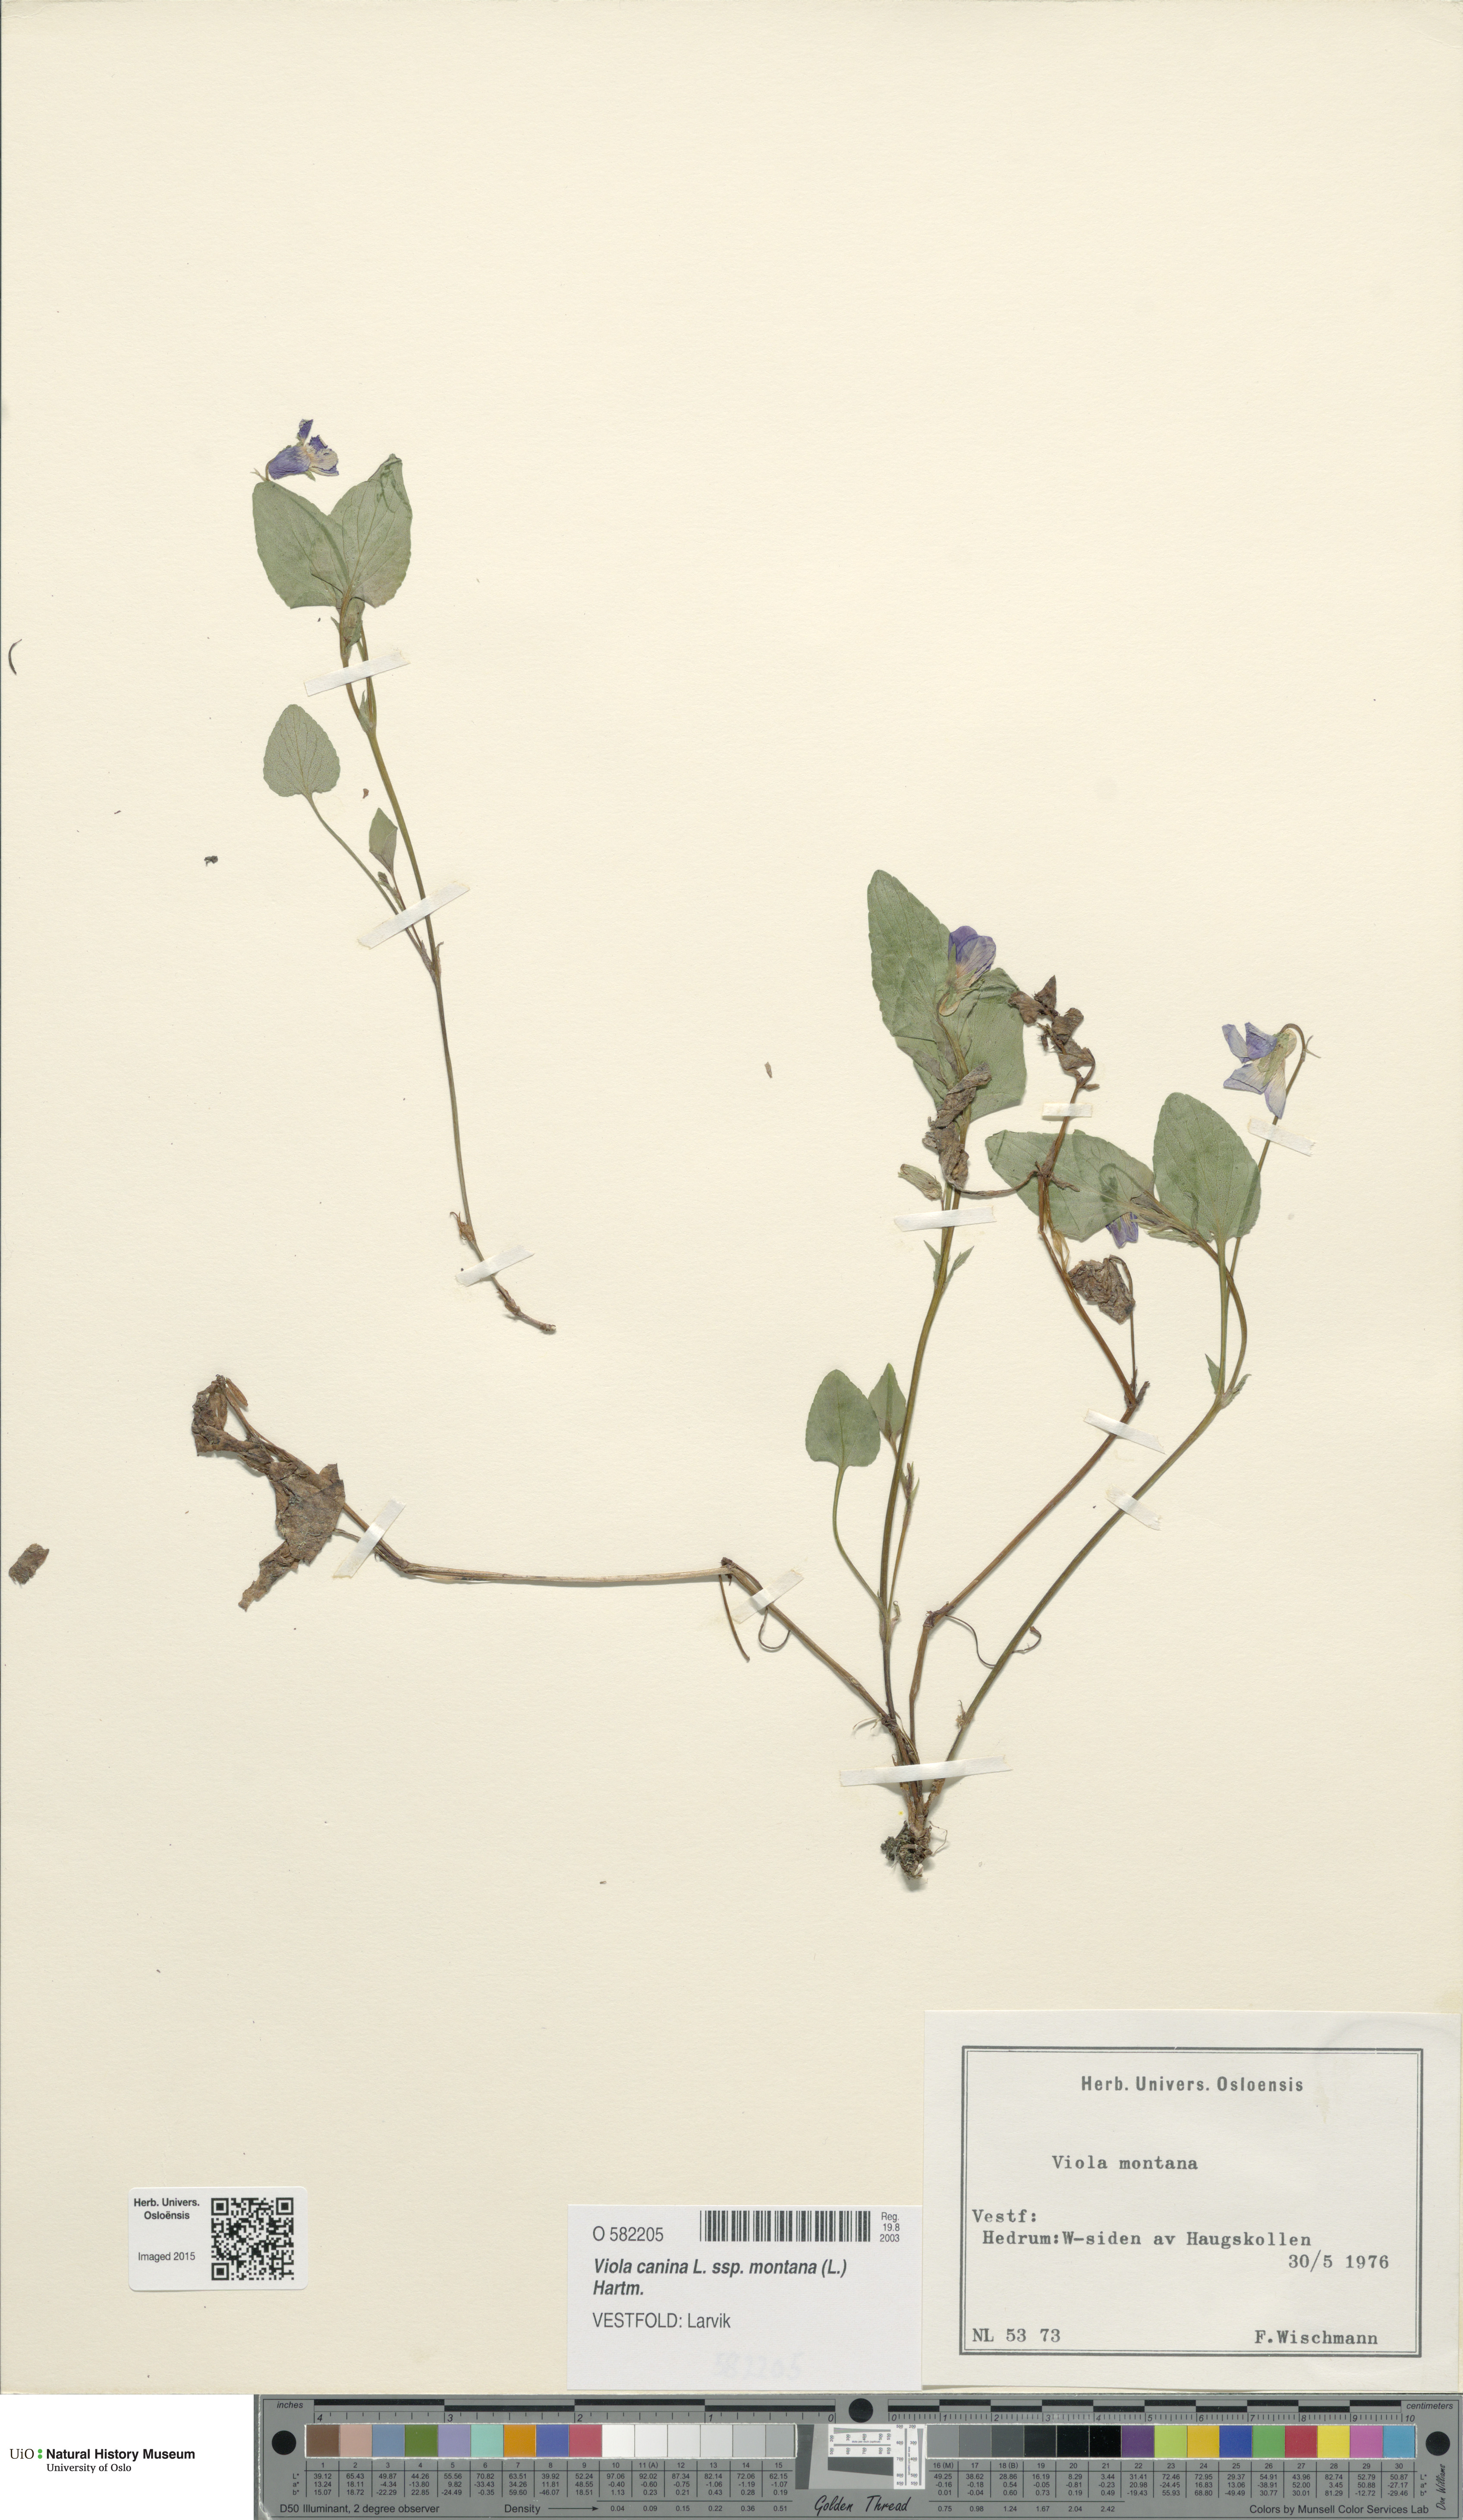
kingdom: Plantae
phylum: Tracheophyta
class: Magnoliopsida
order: Malpighiales
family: Violaceae
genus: Viola
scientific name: Viola ruppii
